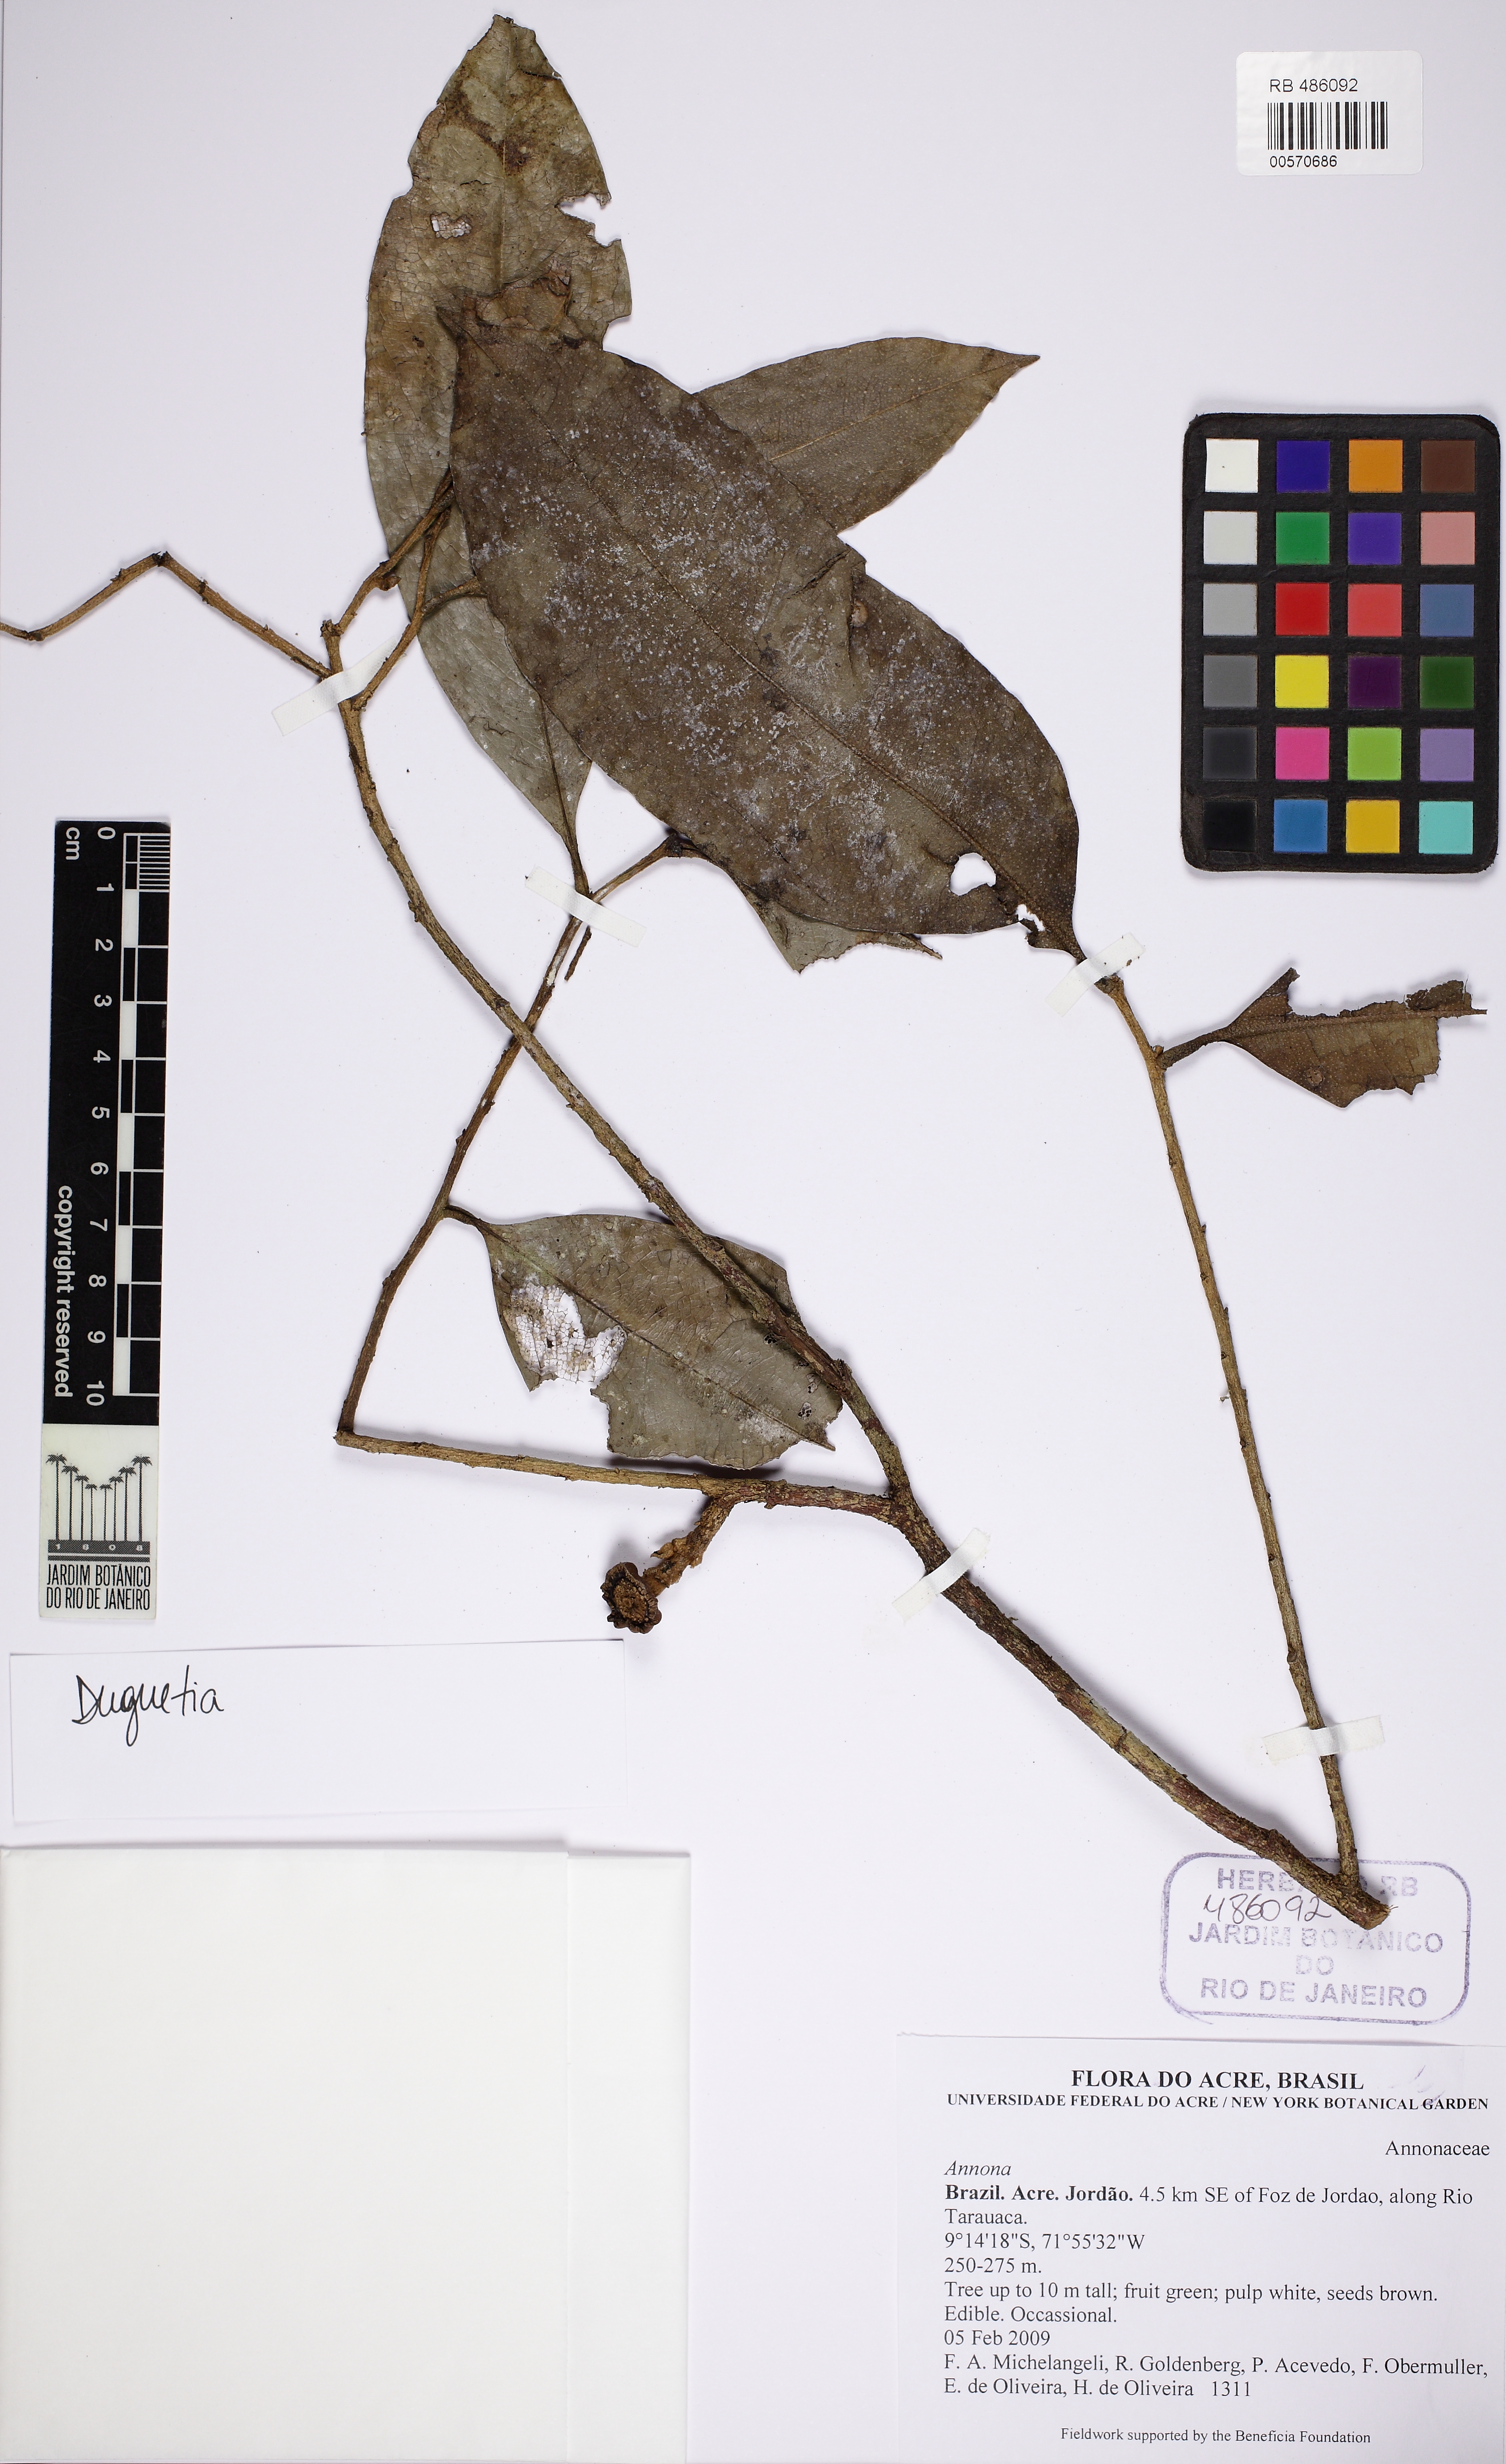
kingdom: Plantae
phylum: Tracheophyta
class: Magnoliopsida
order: Magnoliales
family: Annonaceae
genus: Duguetia
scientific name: Duguetia
